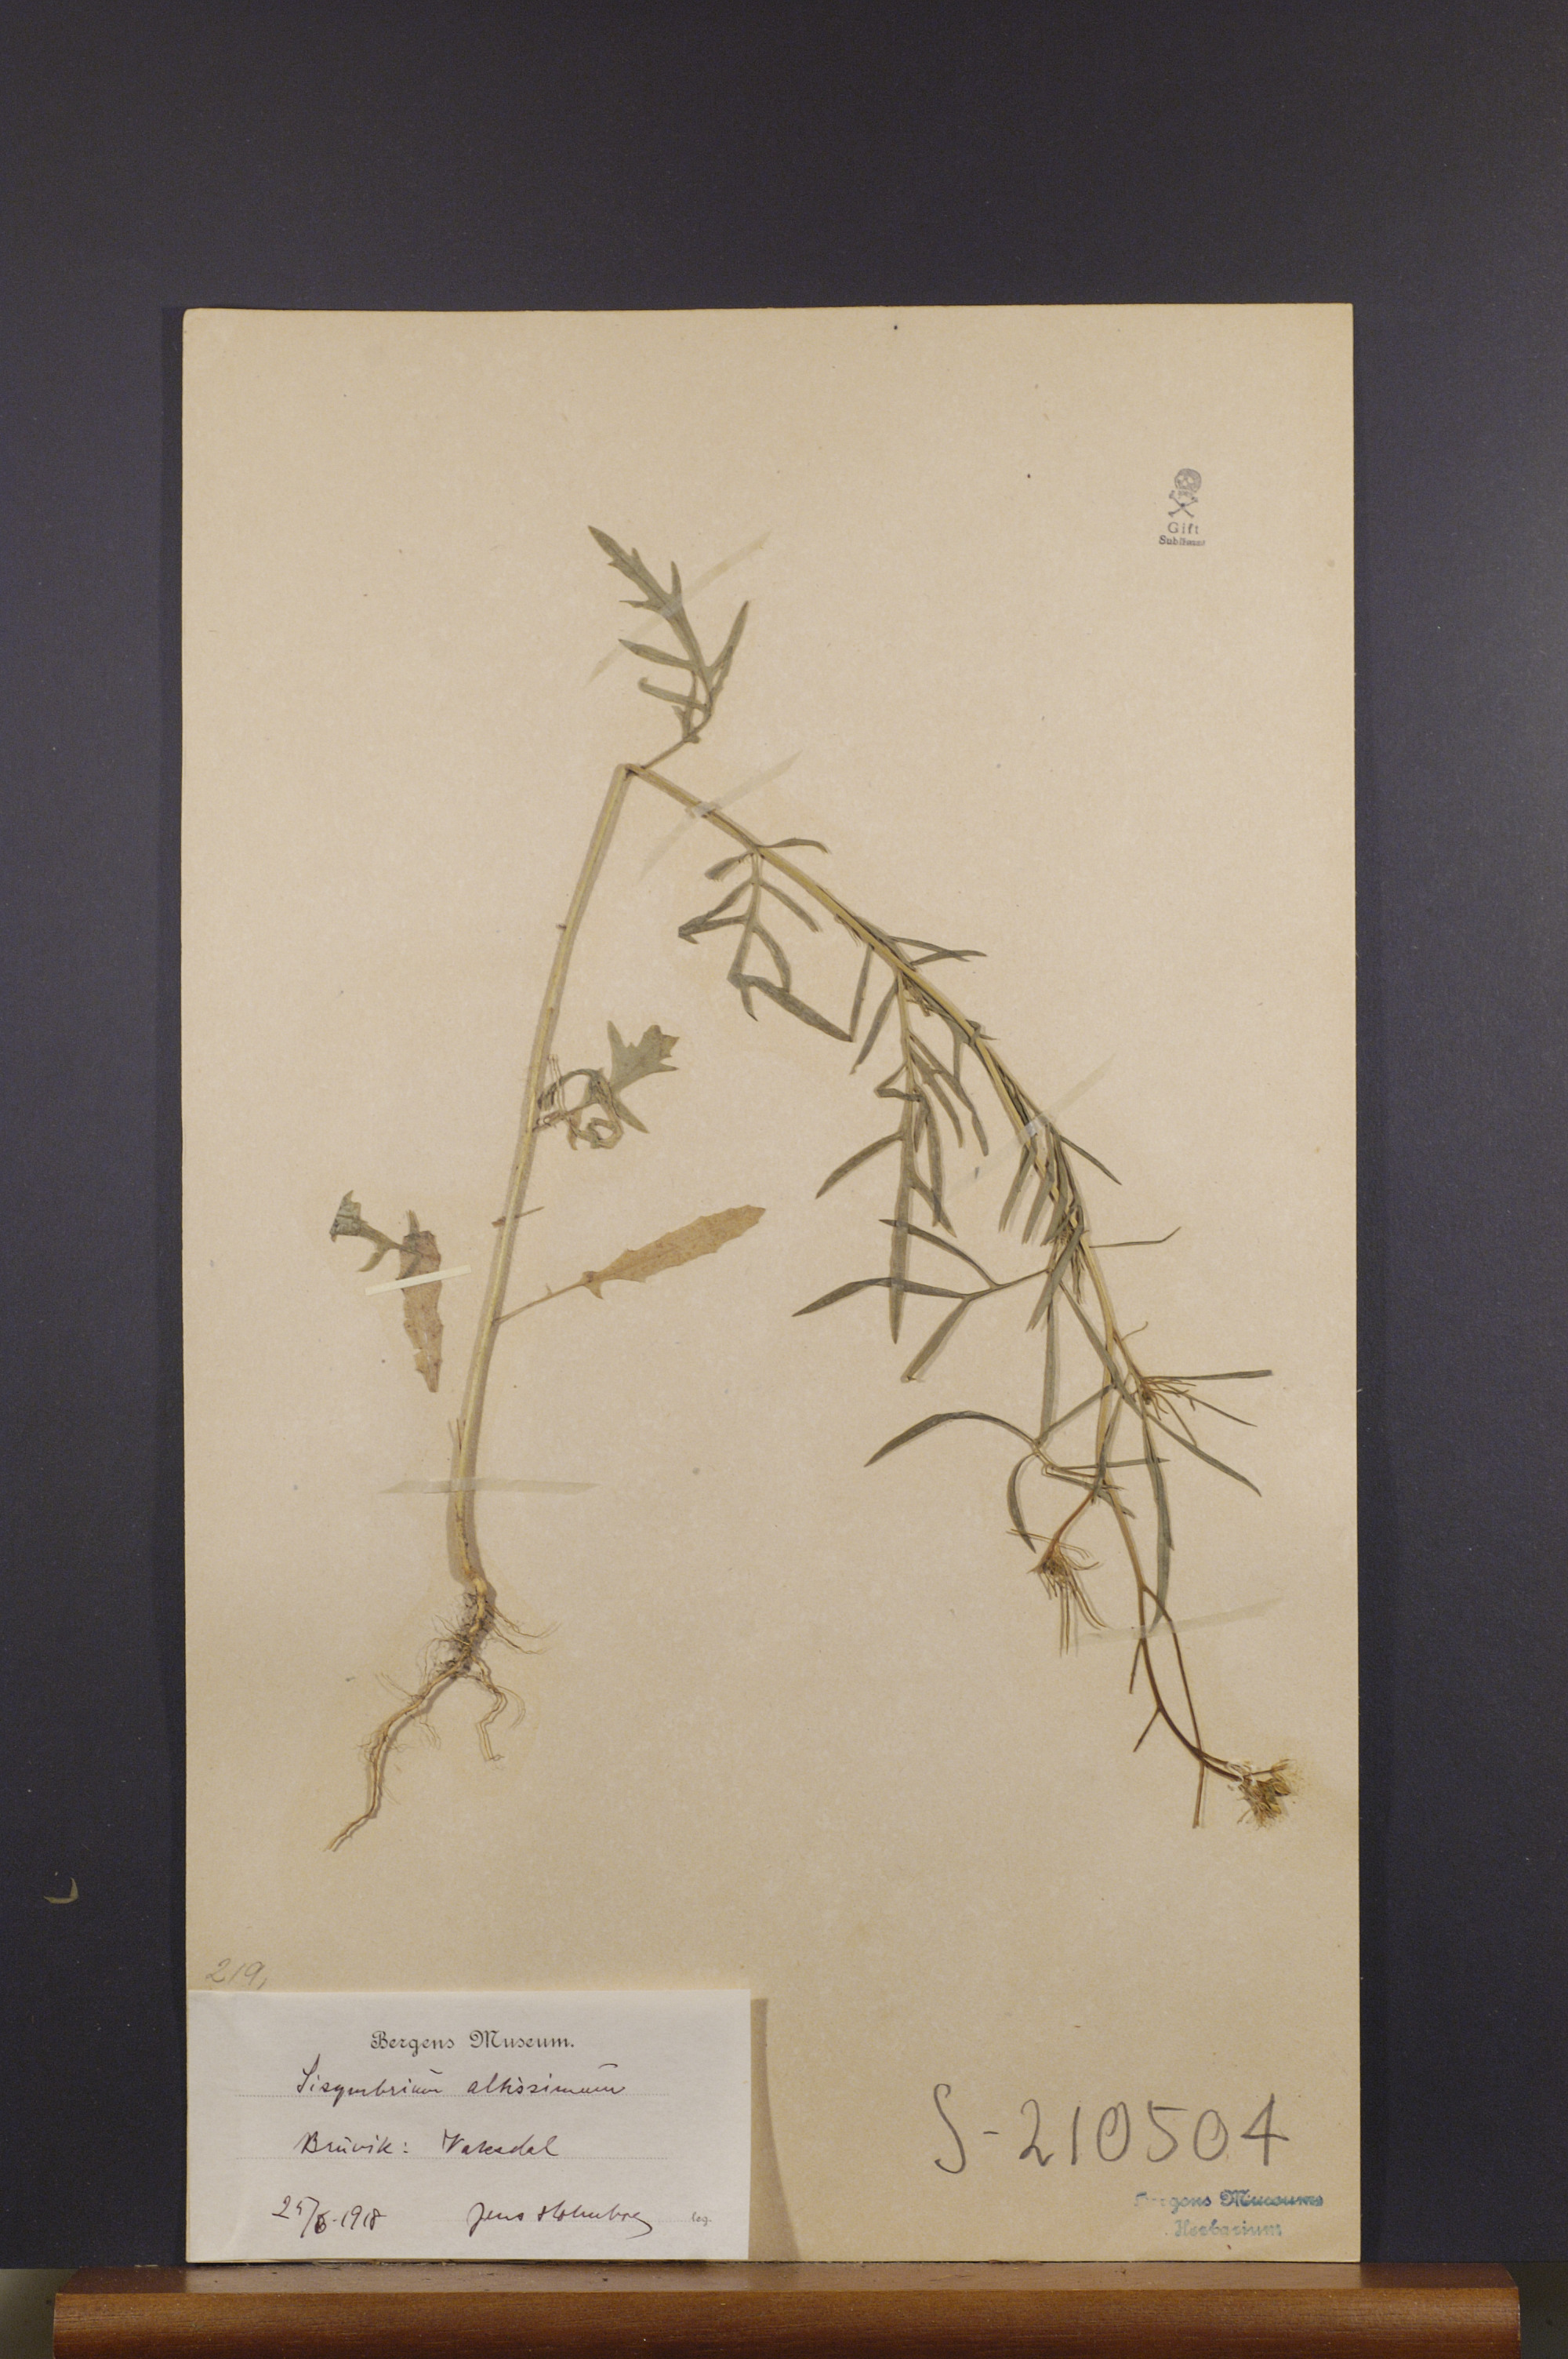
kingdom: Plantae
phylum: Tracheophyta
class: Magnoliopsida
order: Brassicales
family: Brassicaceae
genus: Sisymbrium
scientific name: Sisymbrium altissimum
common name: Tall rocket
